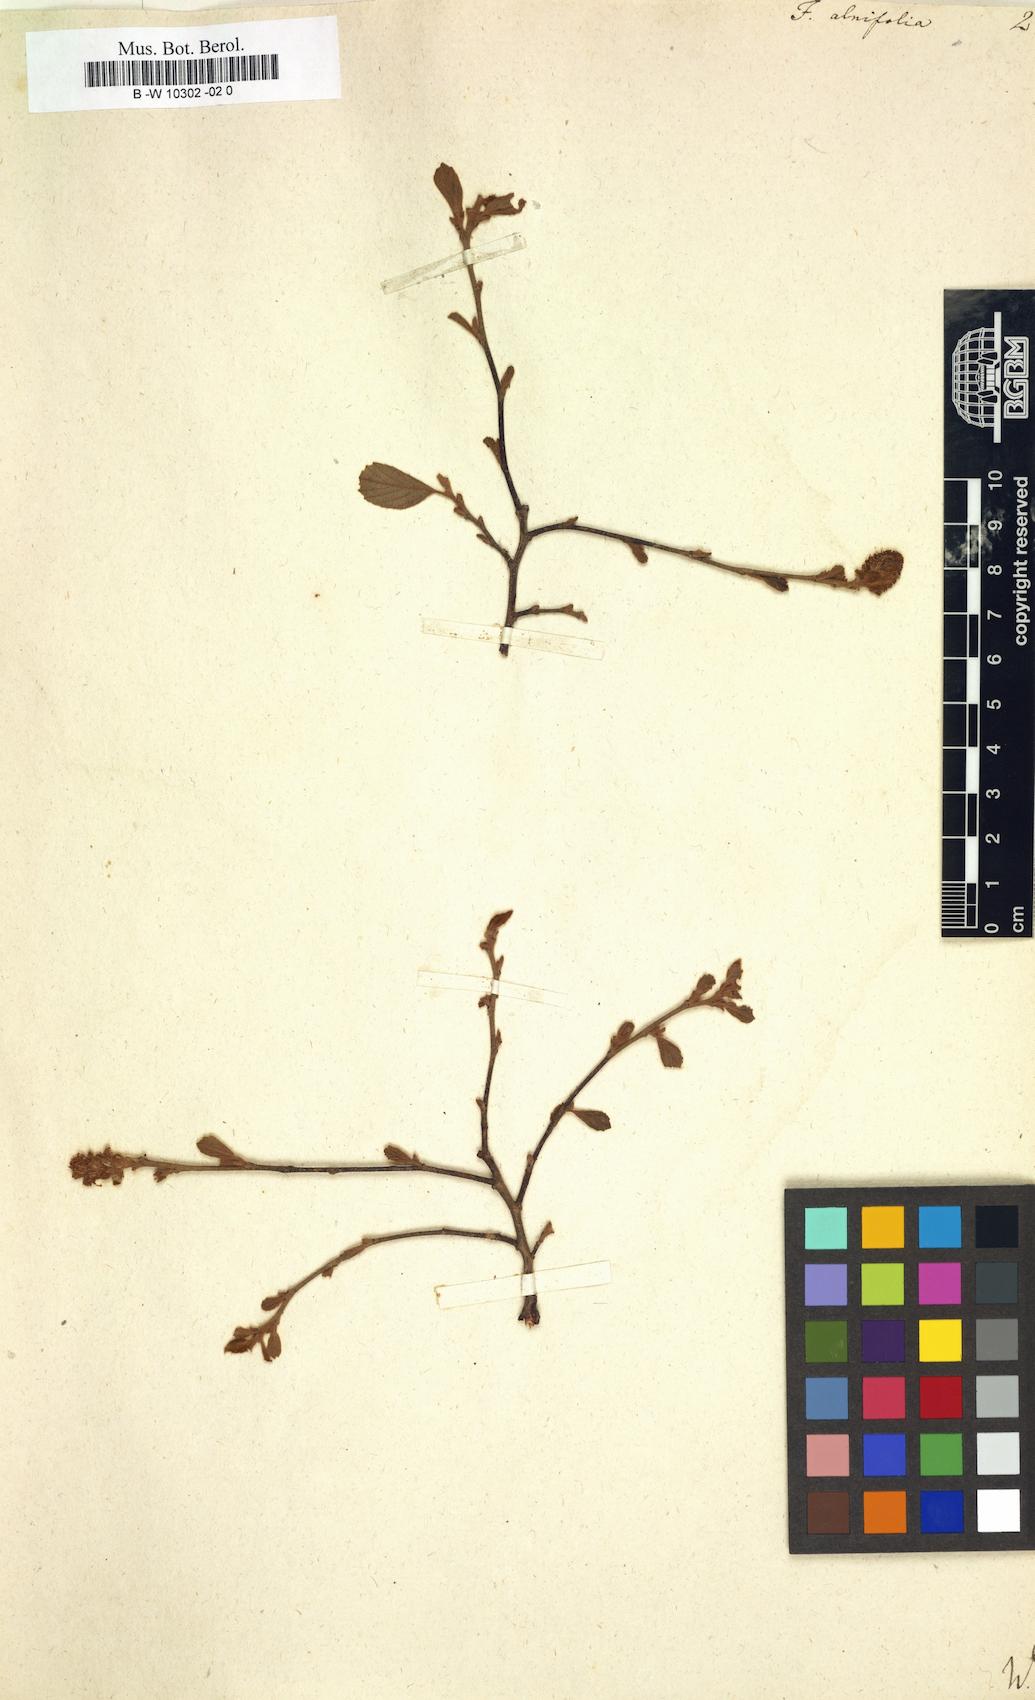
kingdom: Plantae
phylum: Tracheophyta
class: Magnoliopsida
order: Saxifragales
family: Hamamelidaceae
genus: Fothergilla
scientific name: Fothergilla gardenii
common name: Dwarf witch-alder
